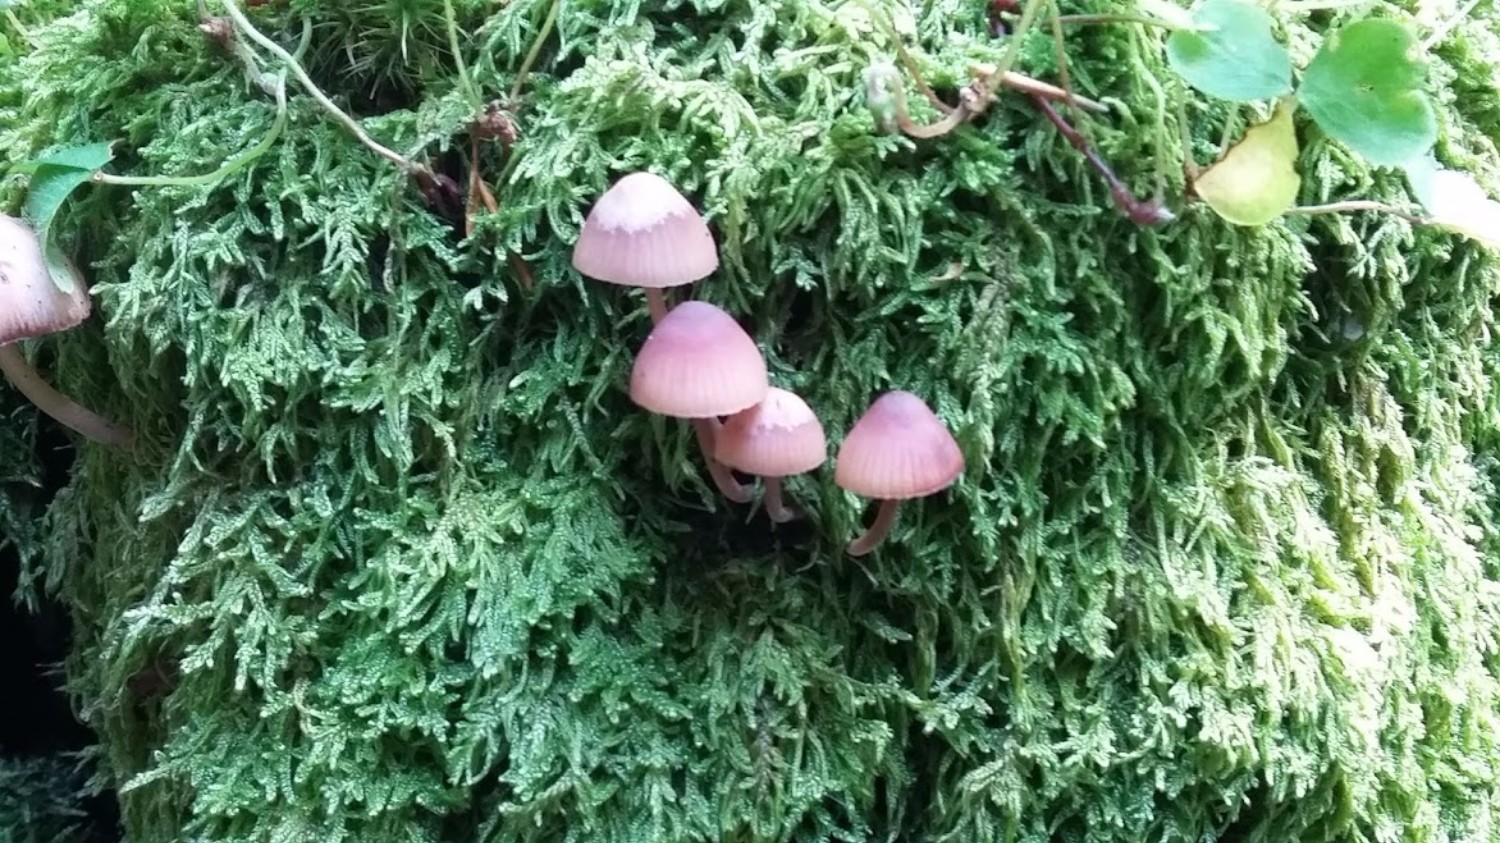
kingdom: Fungi
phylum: Basidiomycota
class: Agaricomycetes
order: Agaricales
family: Mycenaceae
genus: Mycena
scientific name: Mycena haematopus
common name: blødende huesvamp
